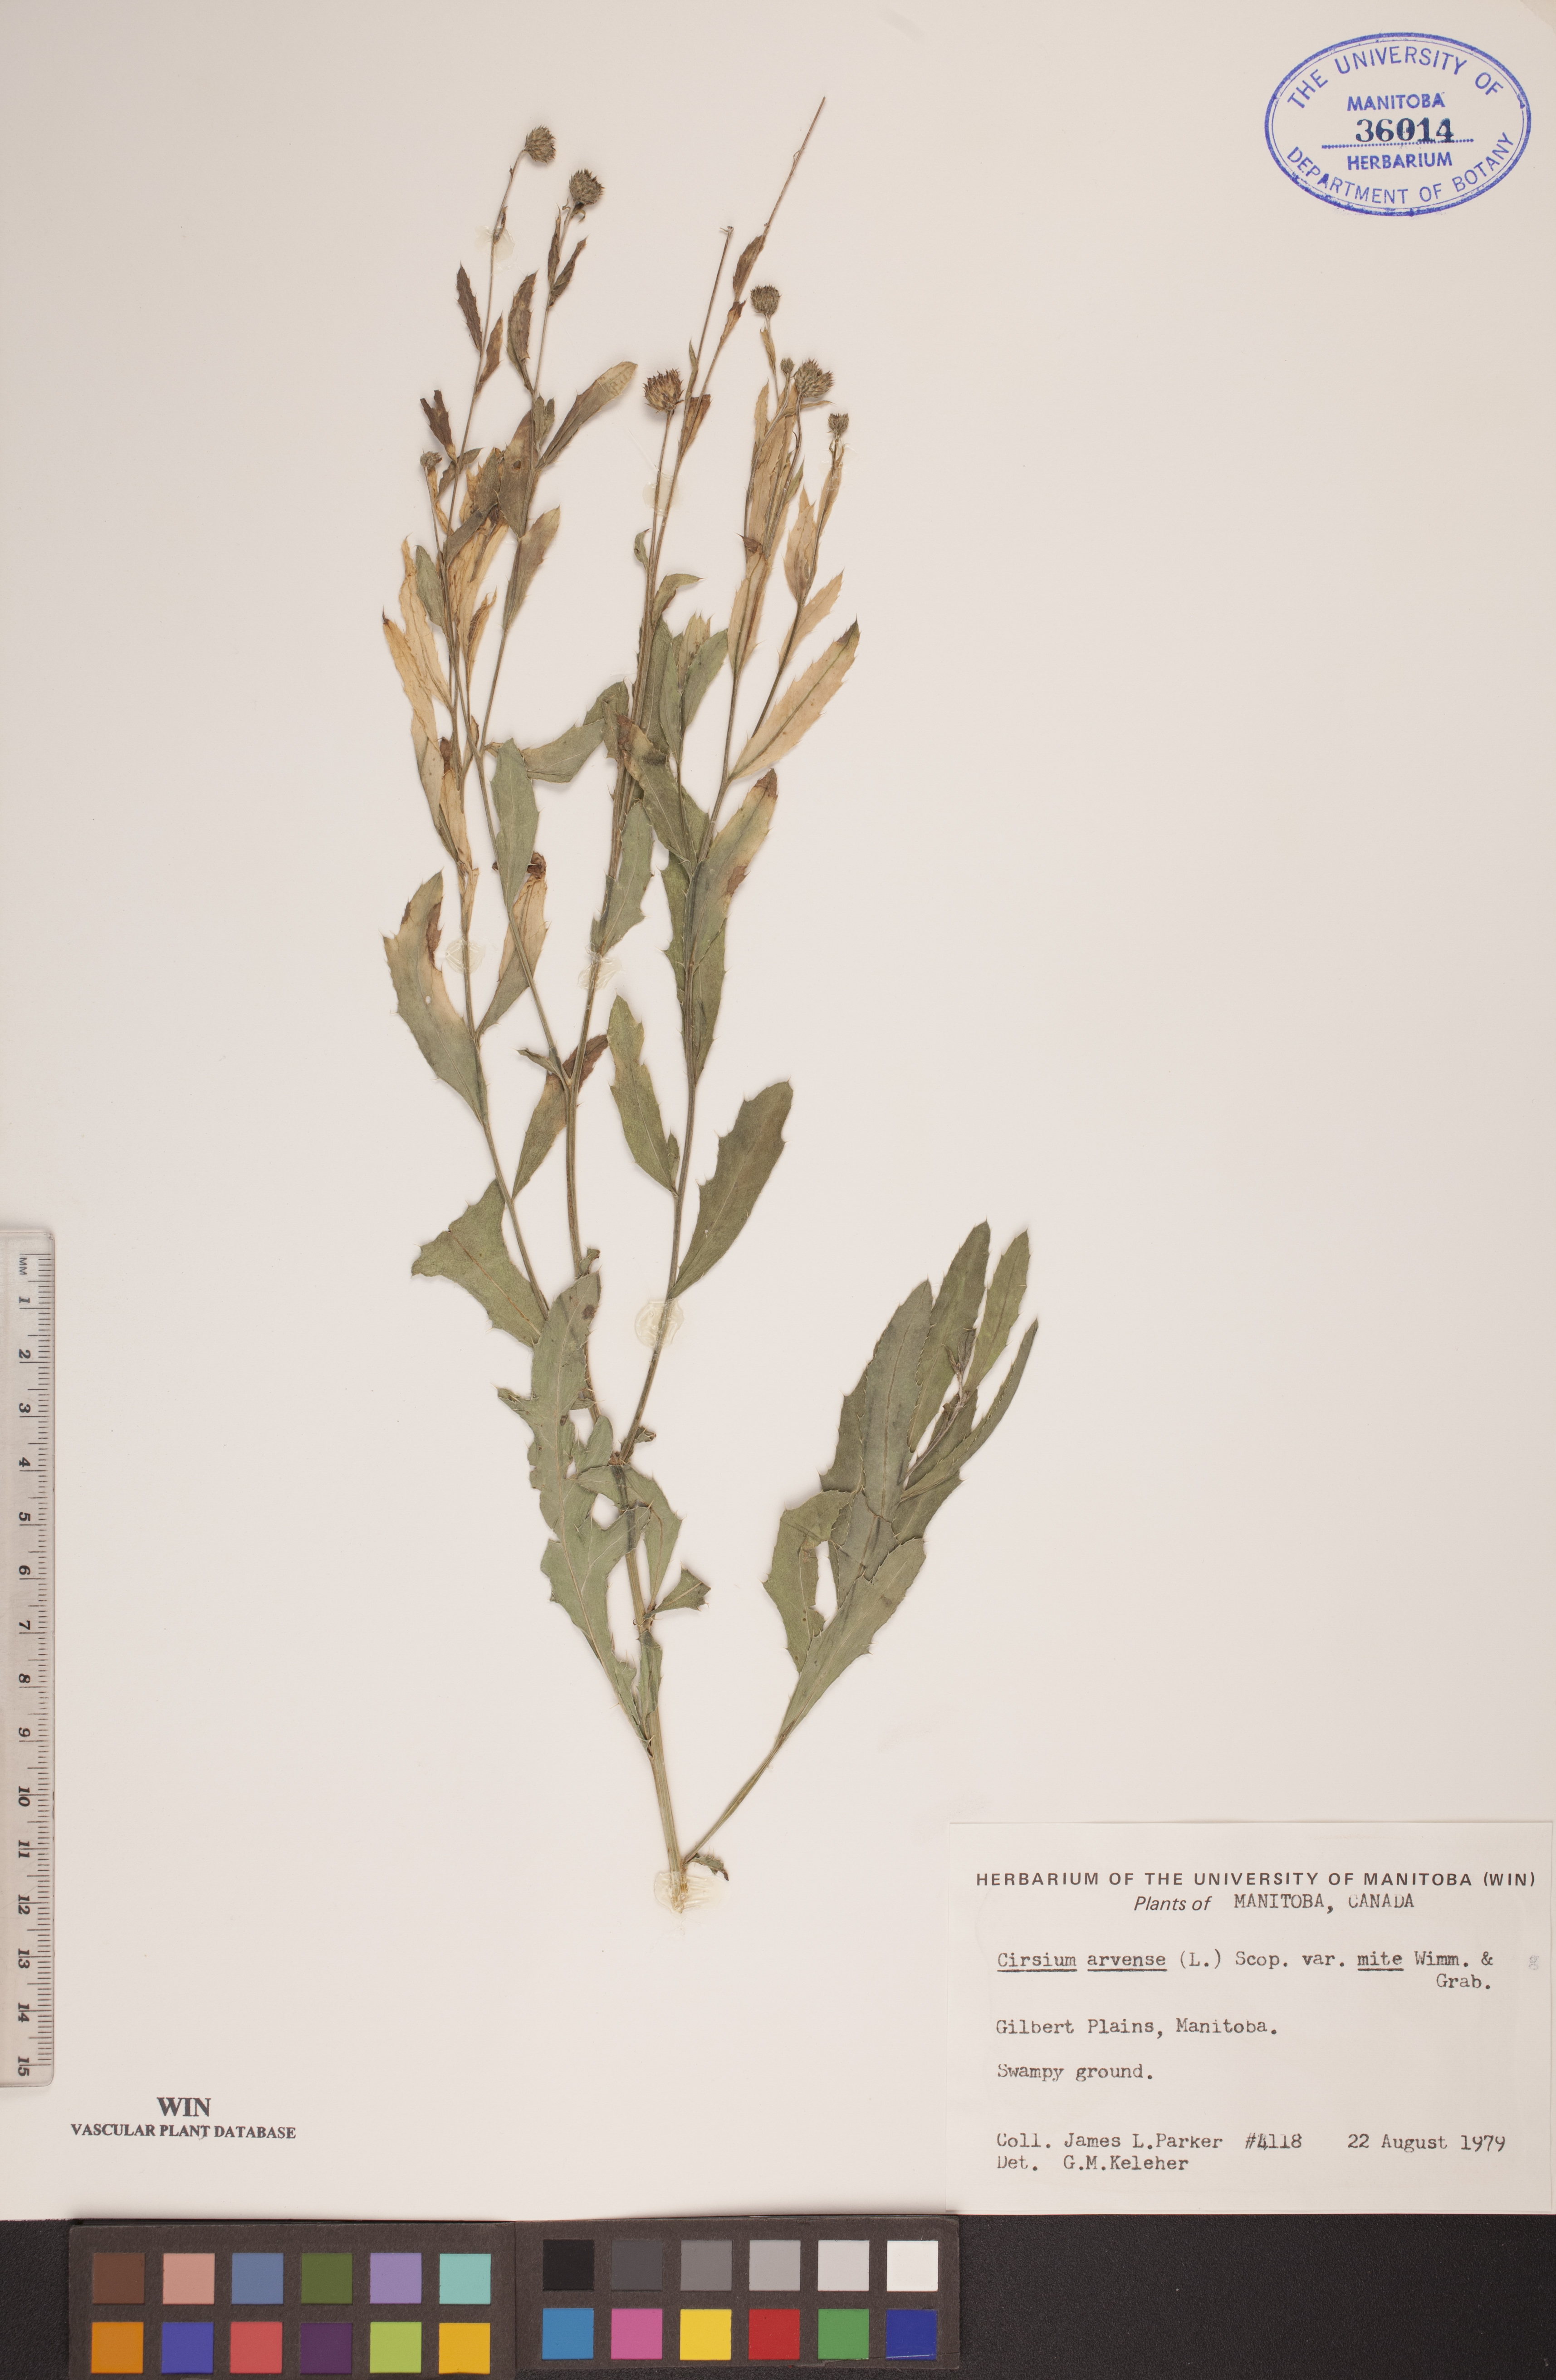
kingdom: Plantae
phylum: Tracheophyta
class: Magnoliopsida
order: Asterales
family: Asteraceae
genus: Cirsium
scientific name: Cirsium arvense
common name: Creeping thistle
